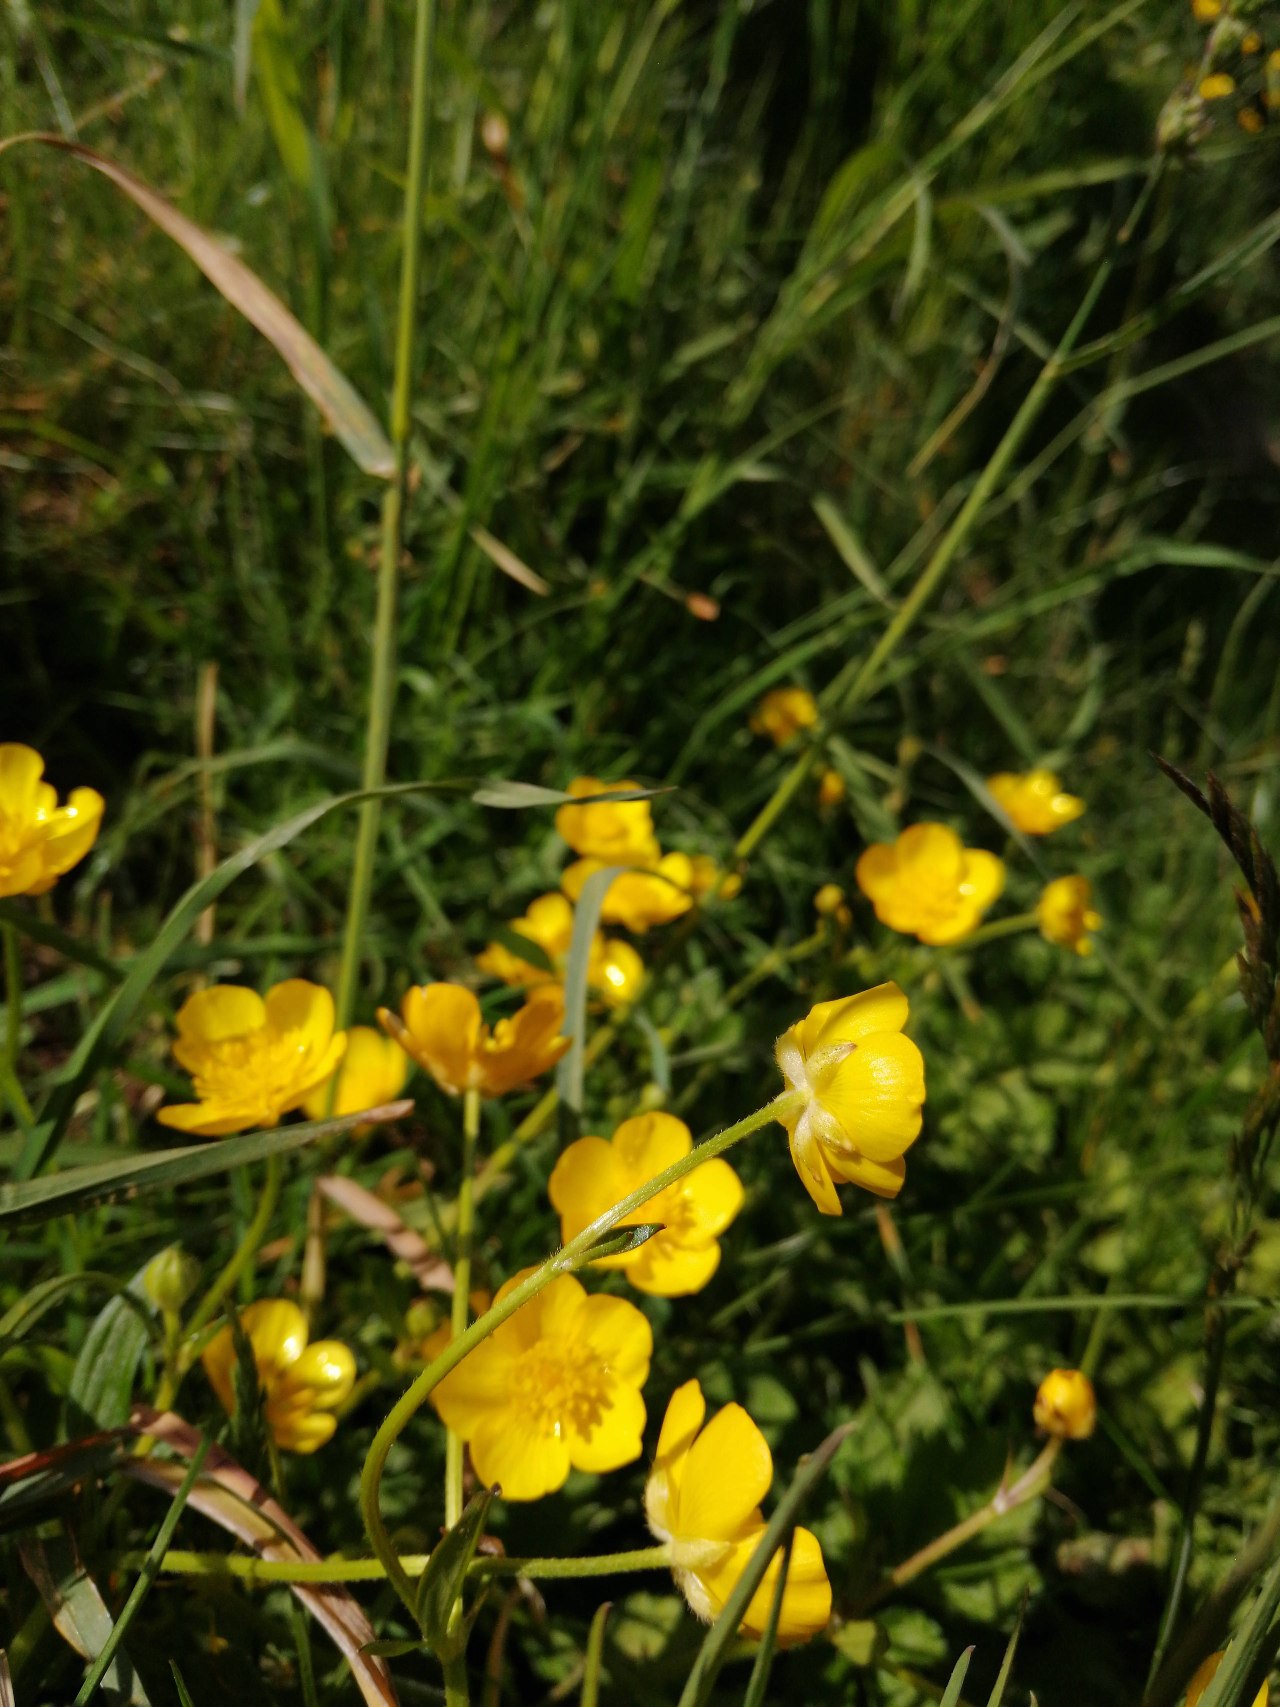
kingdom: Plantae
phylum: Tracheophyta
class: Magnoliopsida
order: Ranunculales
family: Ranunculaceae
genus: Ranunculus
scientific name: Ranunculus repens
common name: Lav ranunkel
